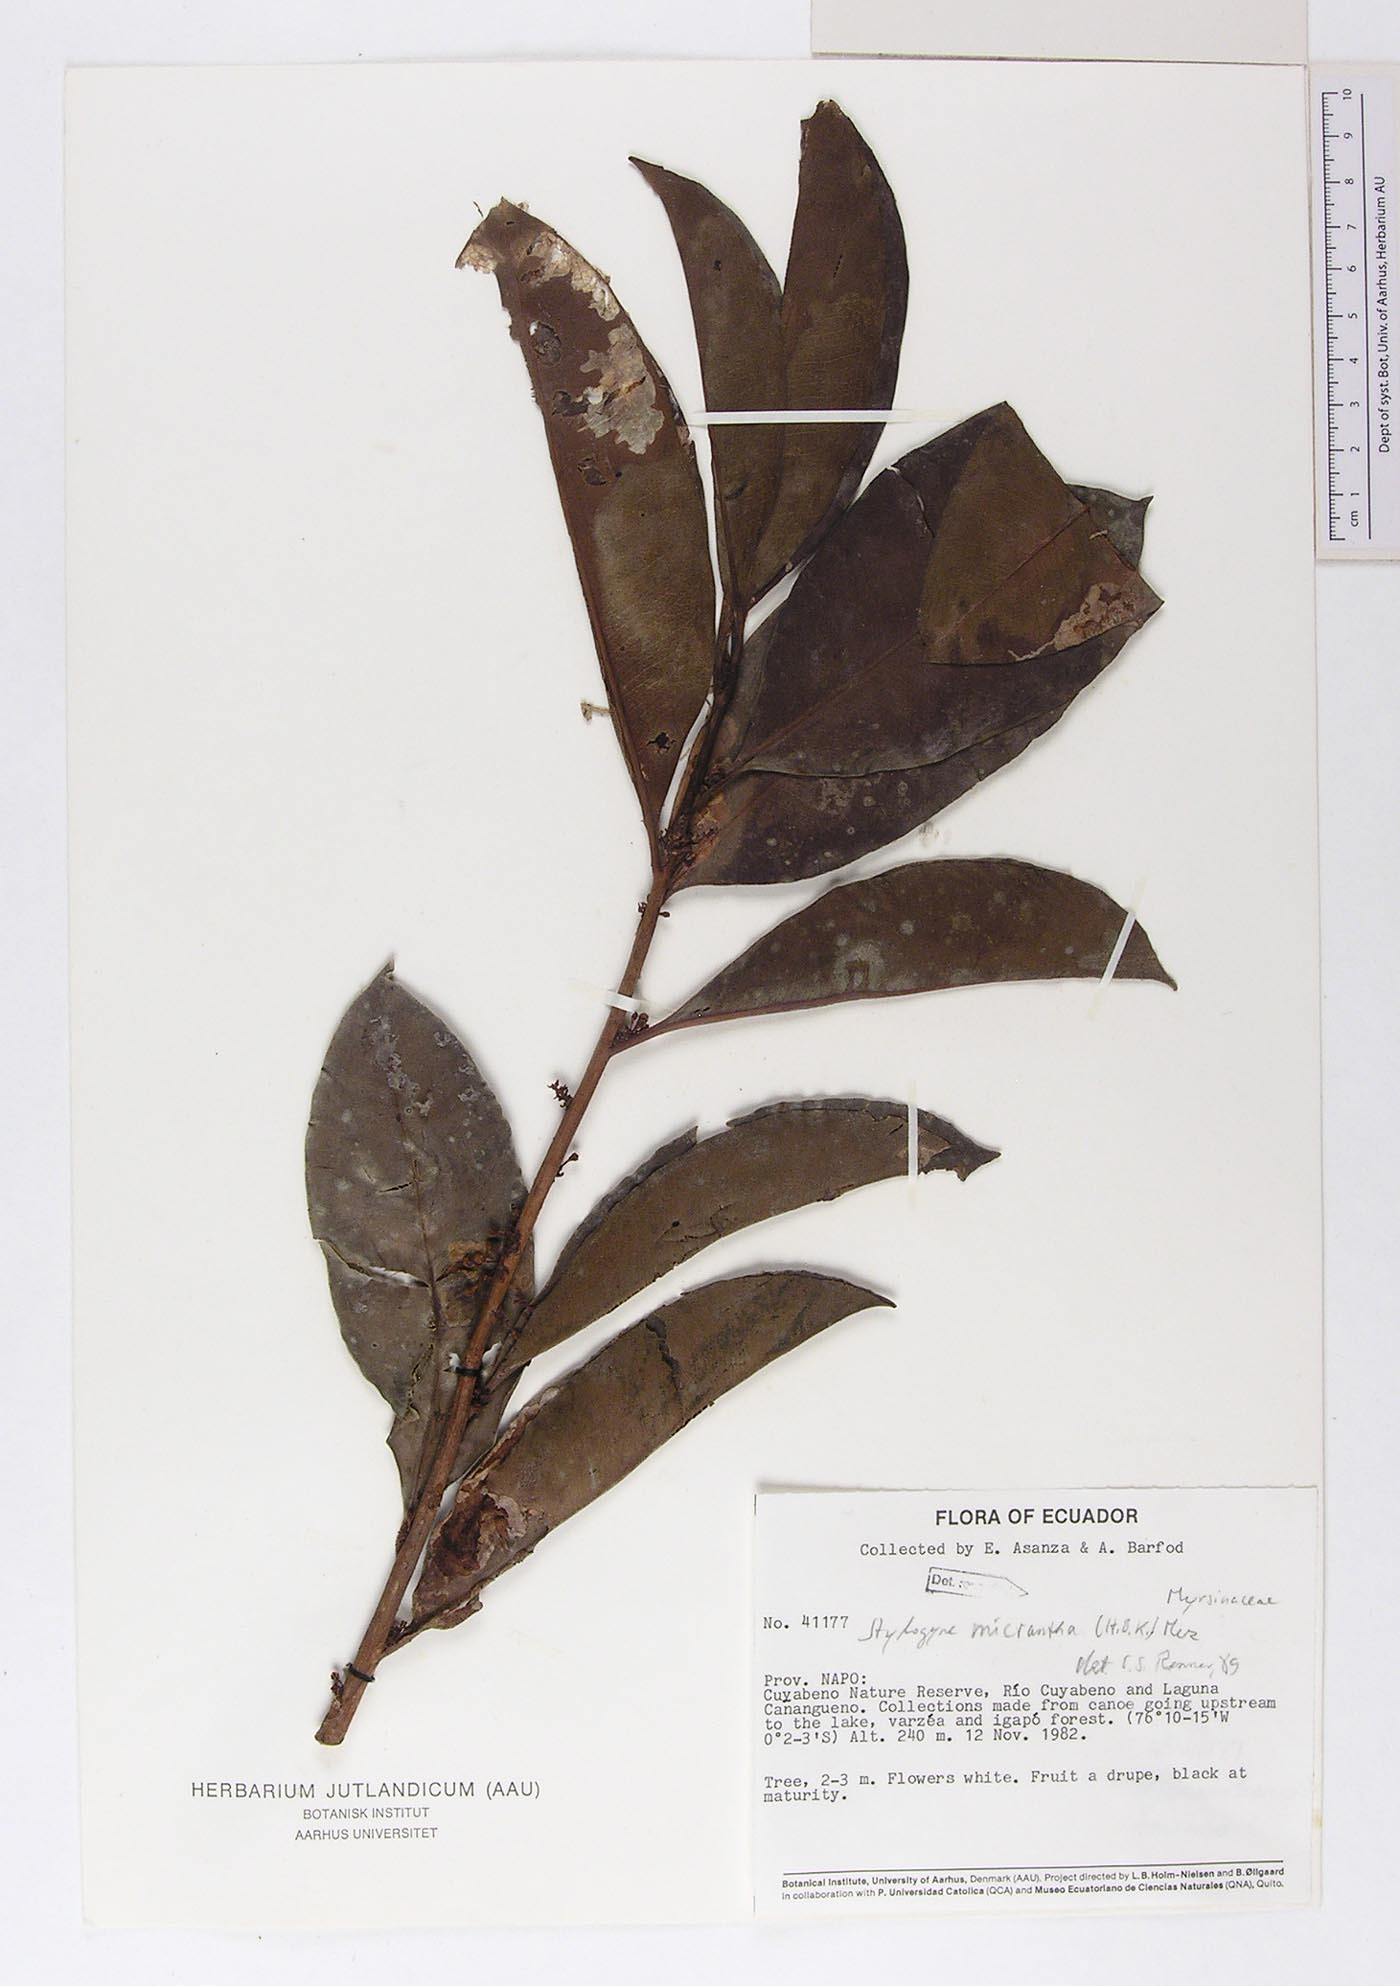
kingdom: Plantae
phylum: Tracheophyta
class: Magnoliopsida
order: Ericales
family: Primulaceae
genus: Stylogyne
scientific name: Stylogyne micrantha
